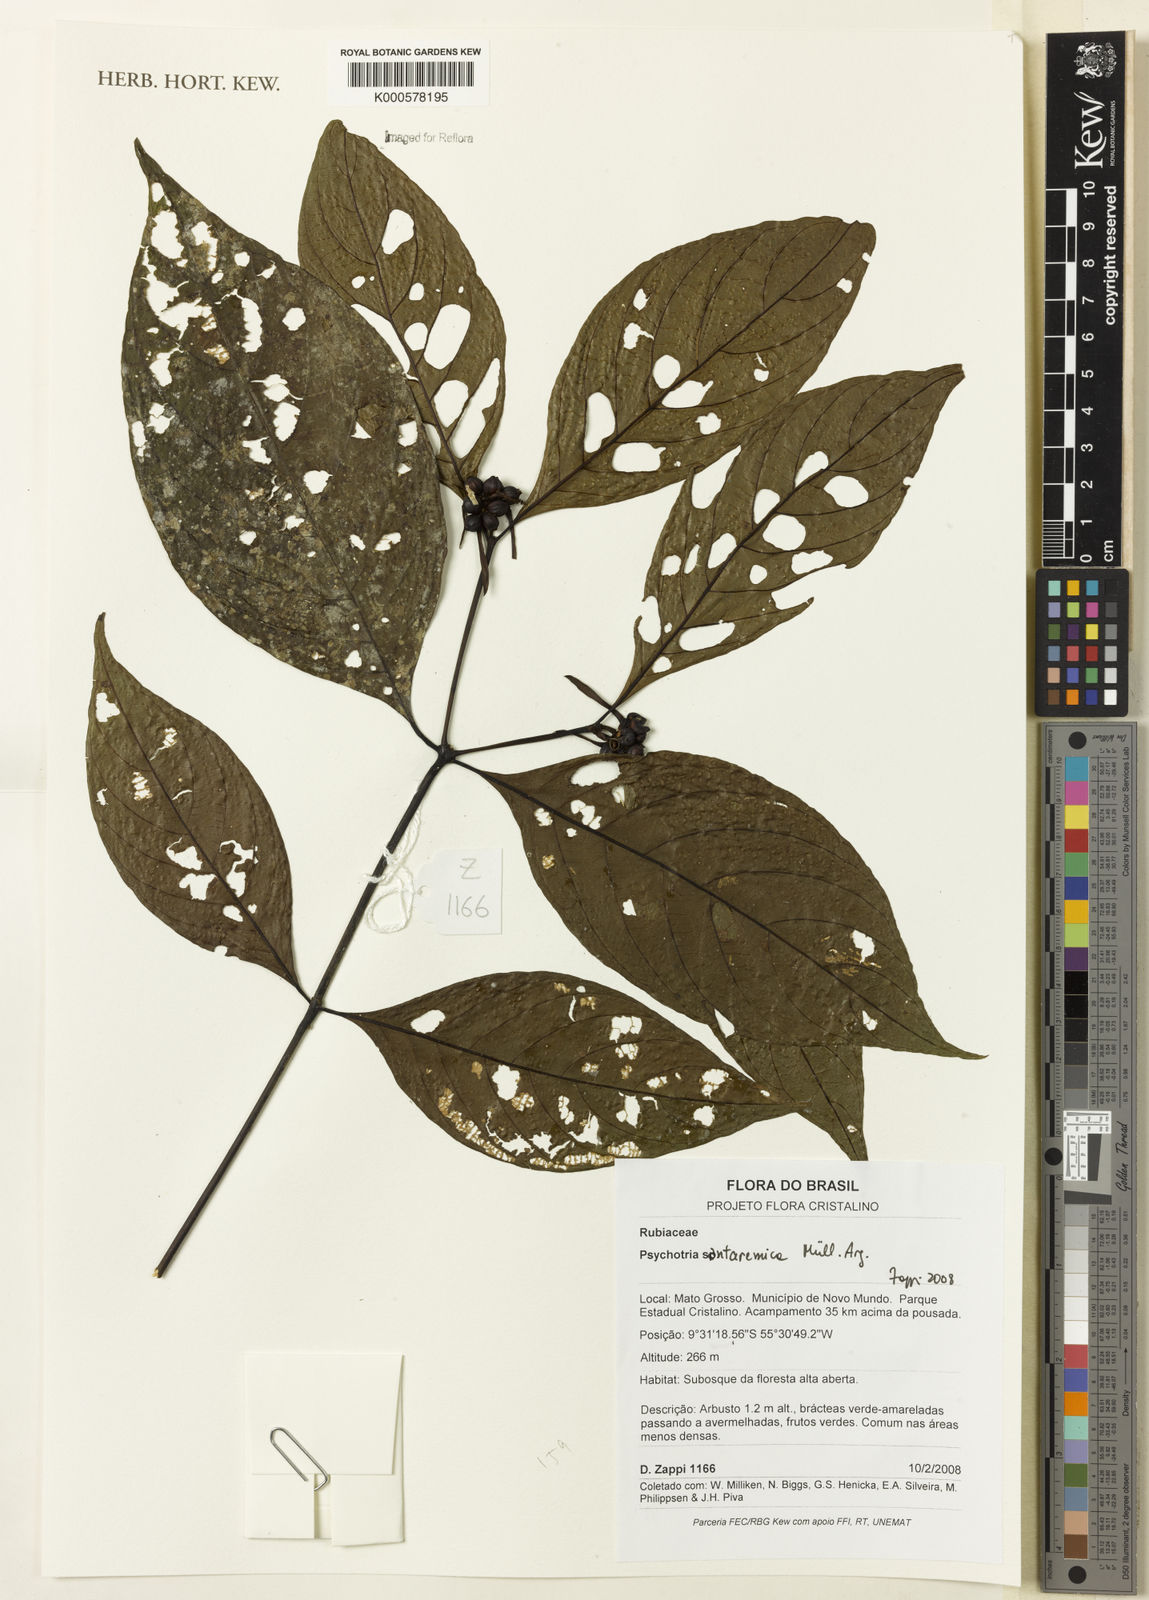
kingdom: Plantae
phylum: Tracheophyta
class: Magnoliopsida
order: Gentianales
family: Rubiaceae
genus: Psychotria
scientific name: Psychotria
